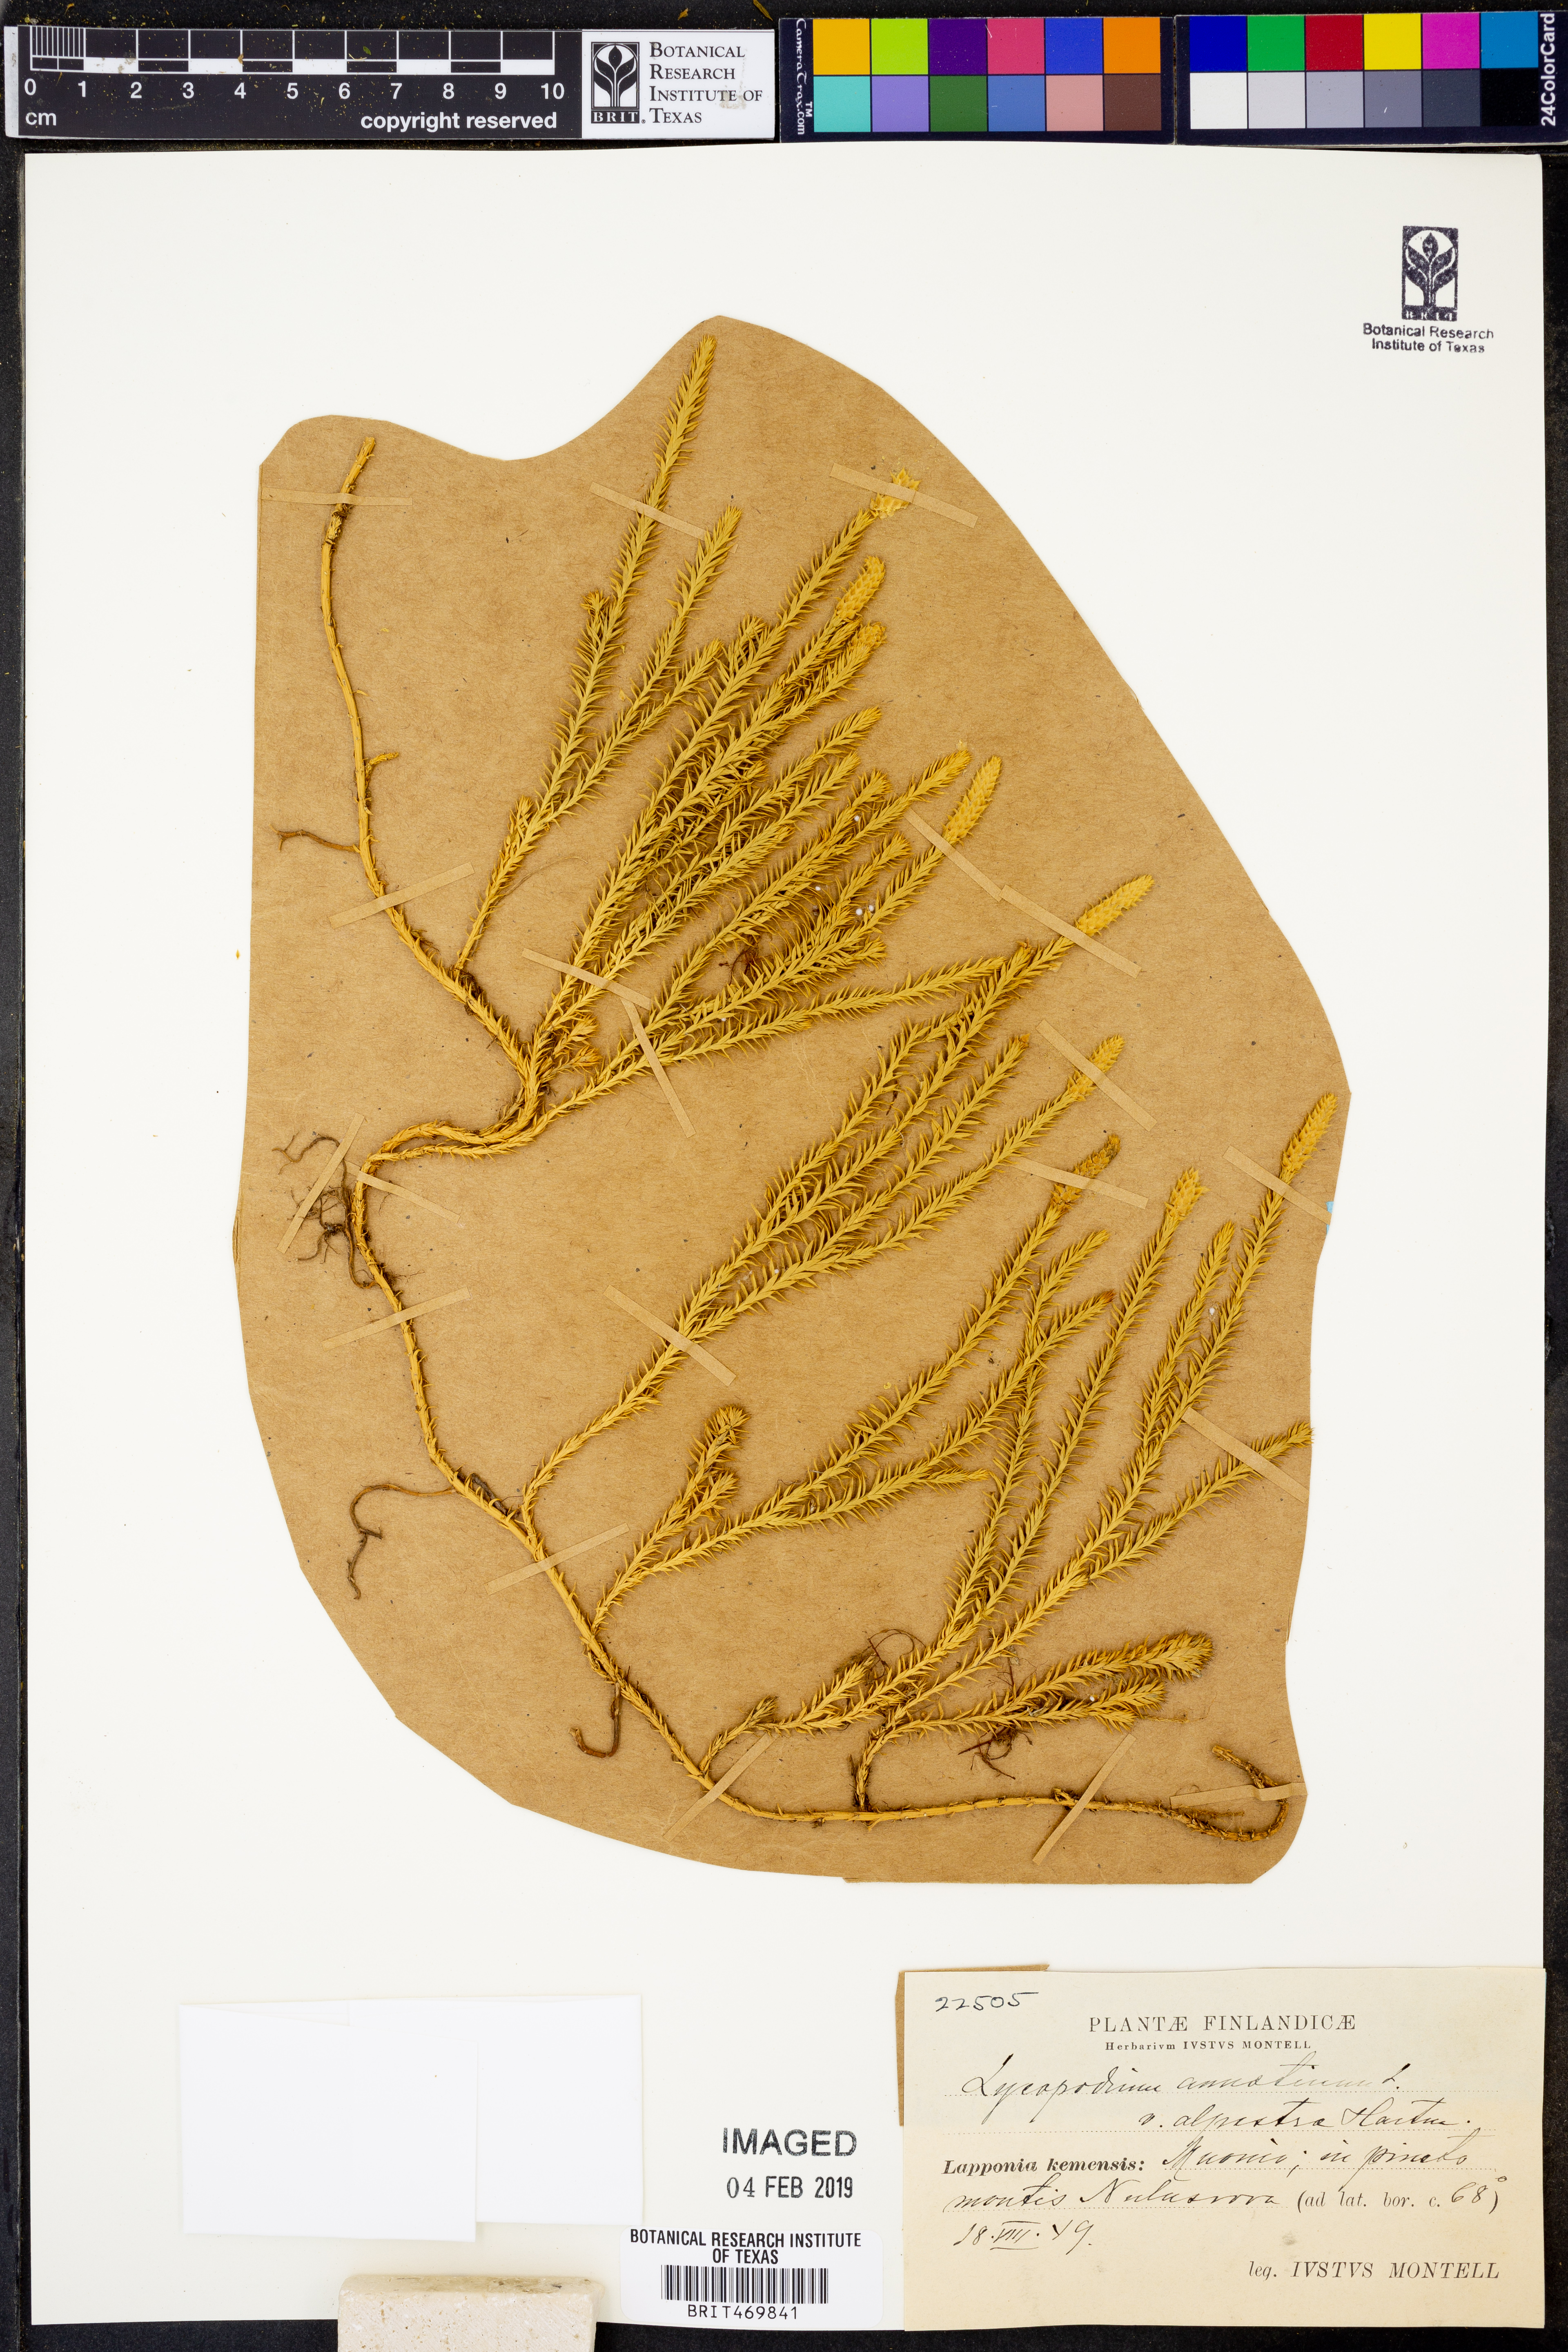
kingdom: Plantae
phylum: Tracheophyta
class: Lycopodiopsida
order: Lycopodiales
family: Lycopodiaceae
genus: Spinulum
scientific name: Spinulum annotinum
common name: Interrupted club-moss
